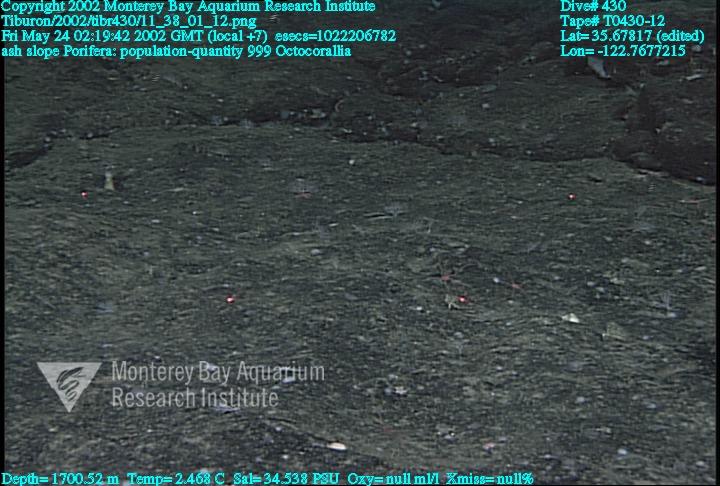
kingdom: Animalia
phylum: Porifera
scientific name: Porifera
